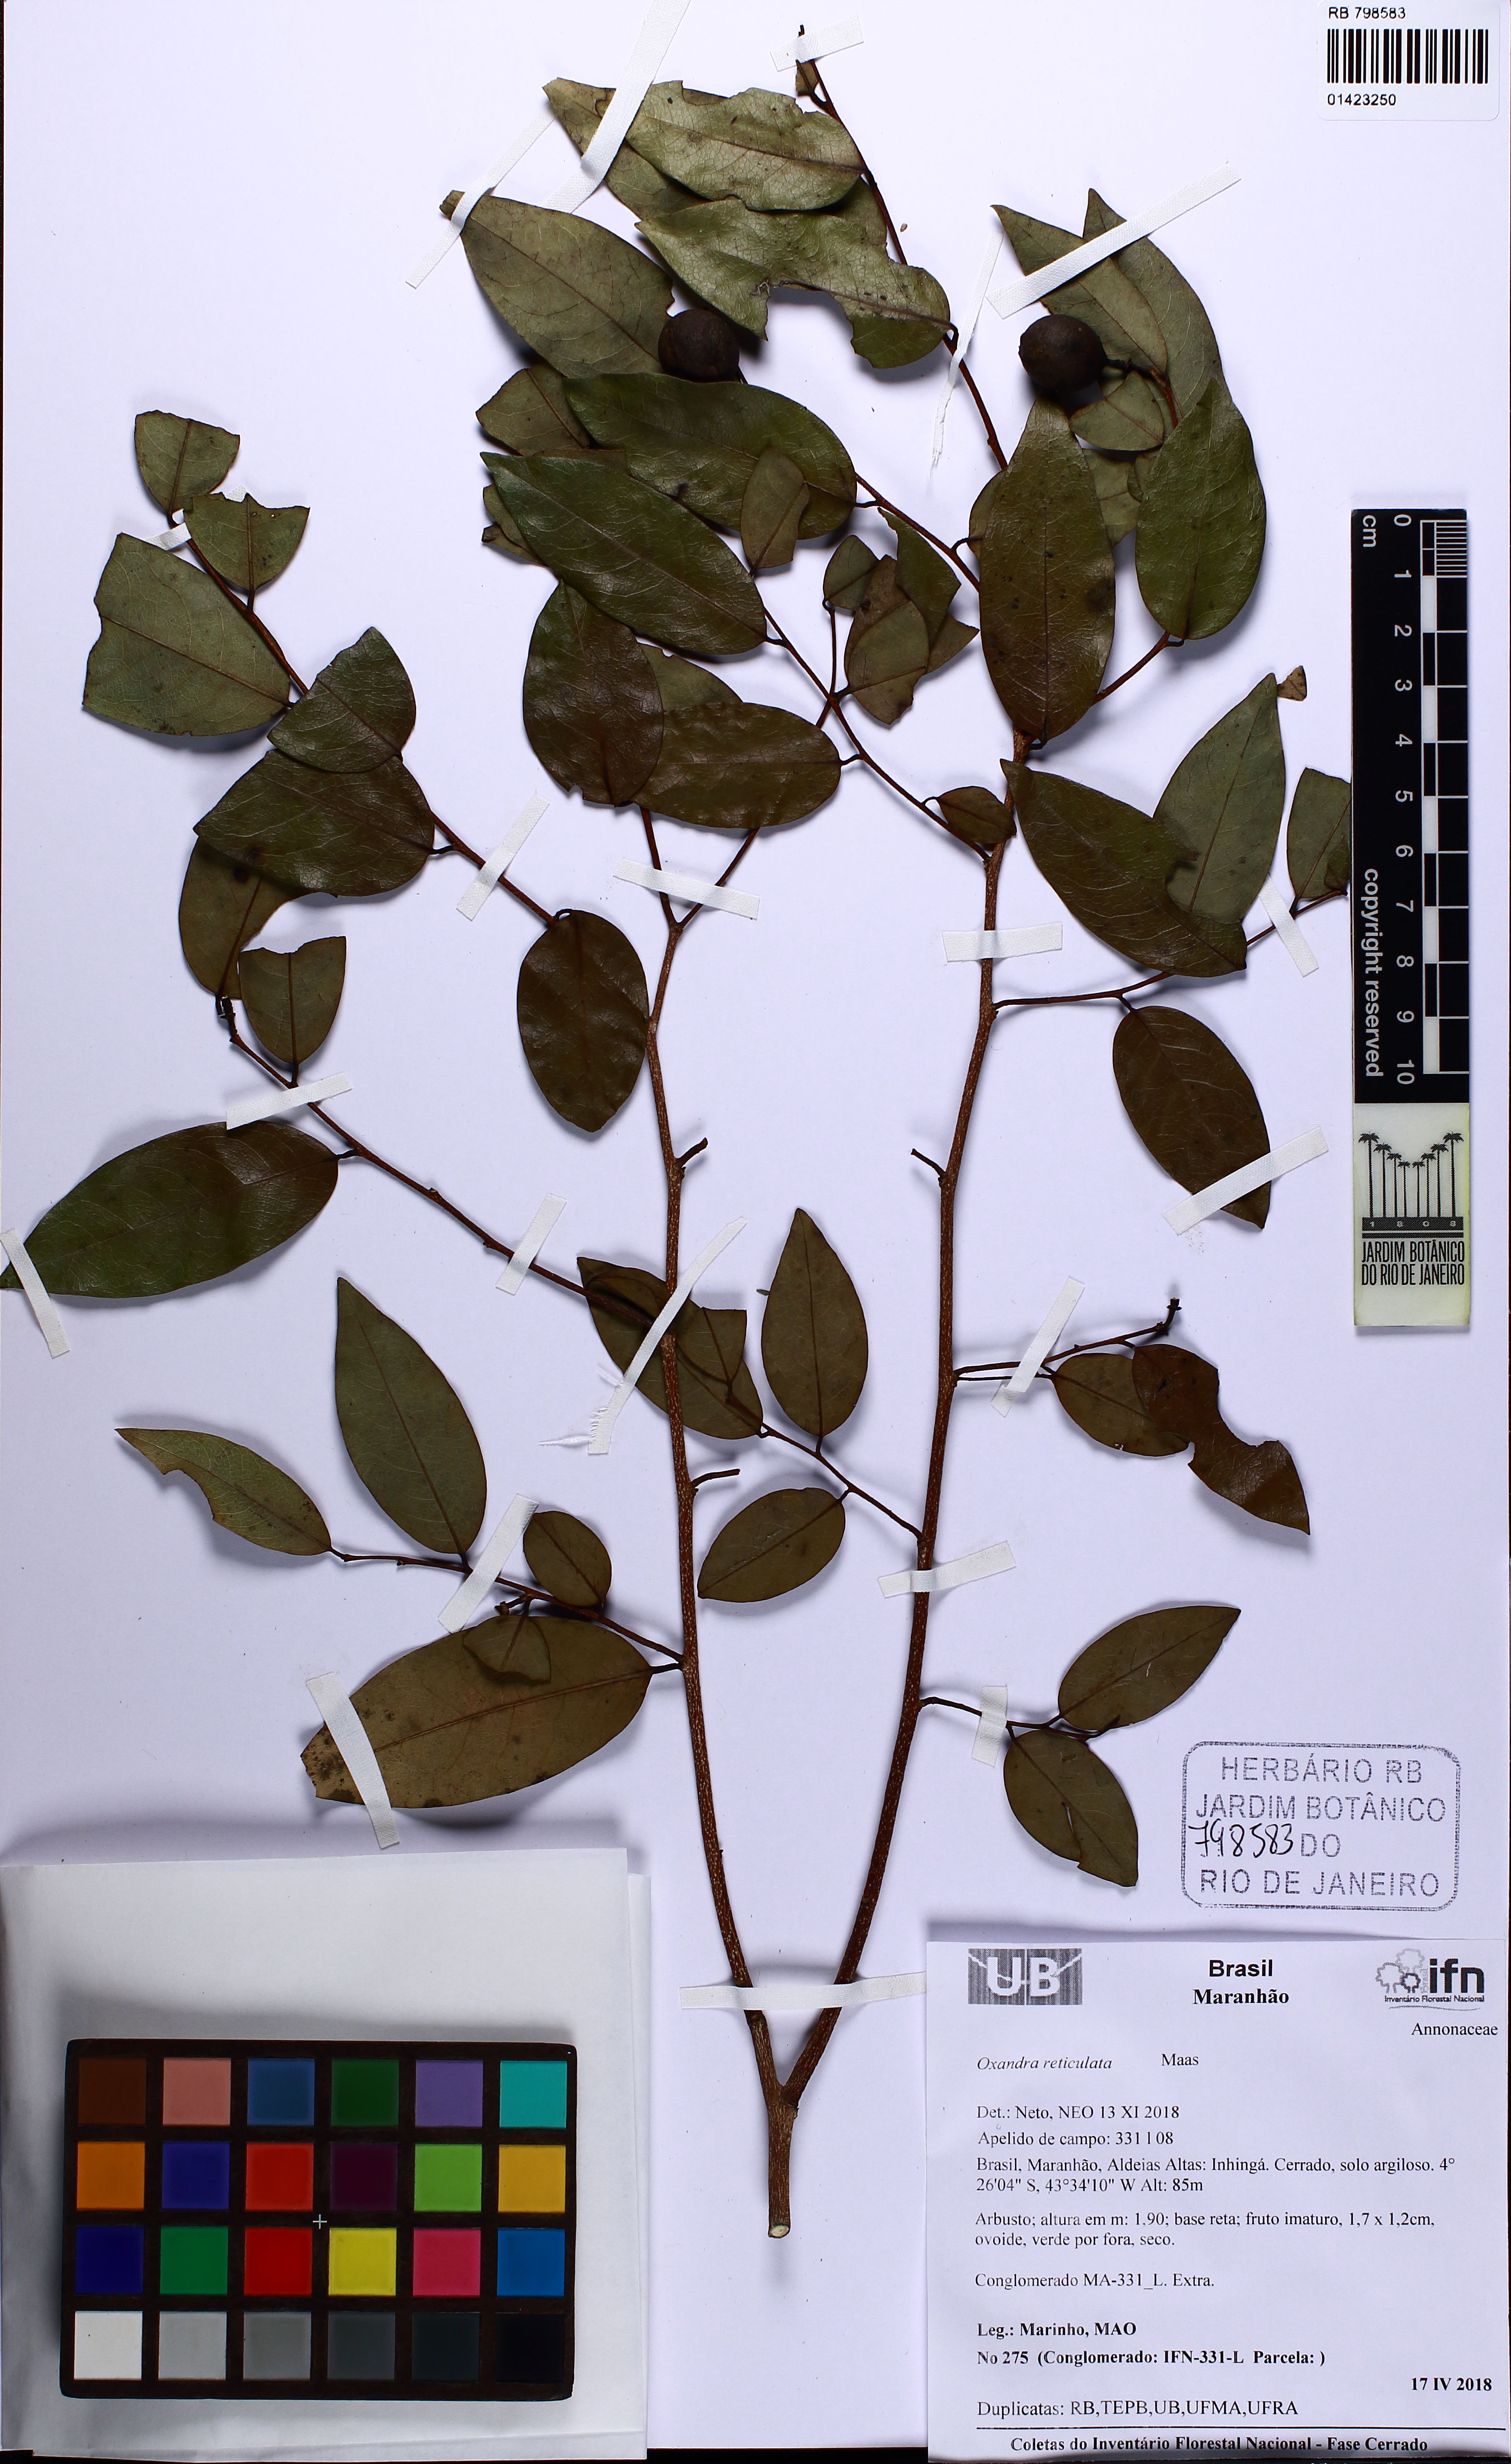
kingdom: Plantae
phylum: Tracheophyta
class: Magnoliopsida
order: Magnoliales
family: Annonaceae
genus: Oxandra
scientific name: Oxandra reticulata
